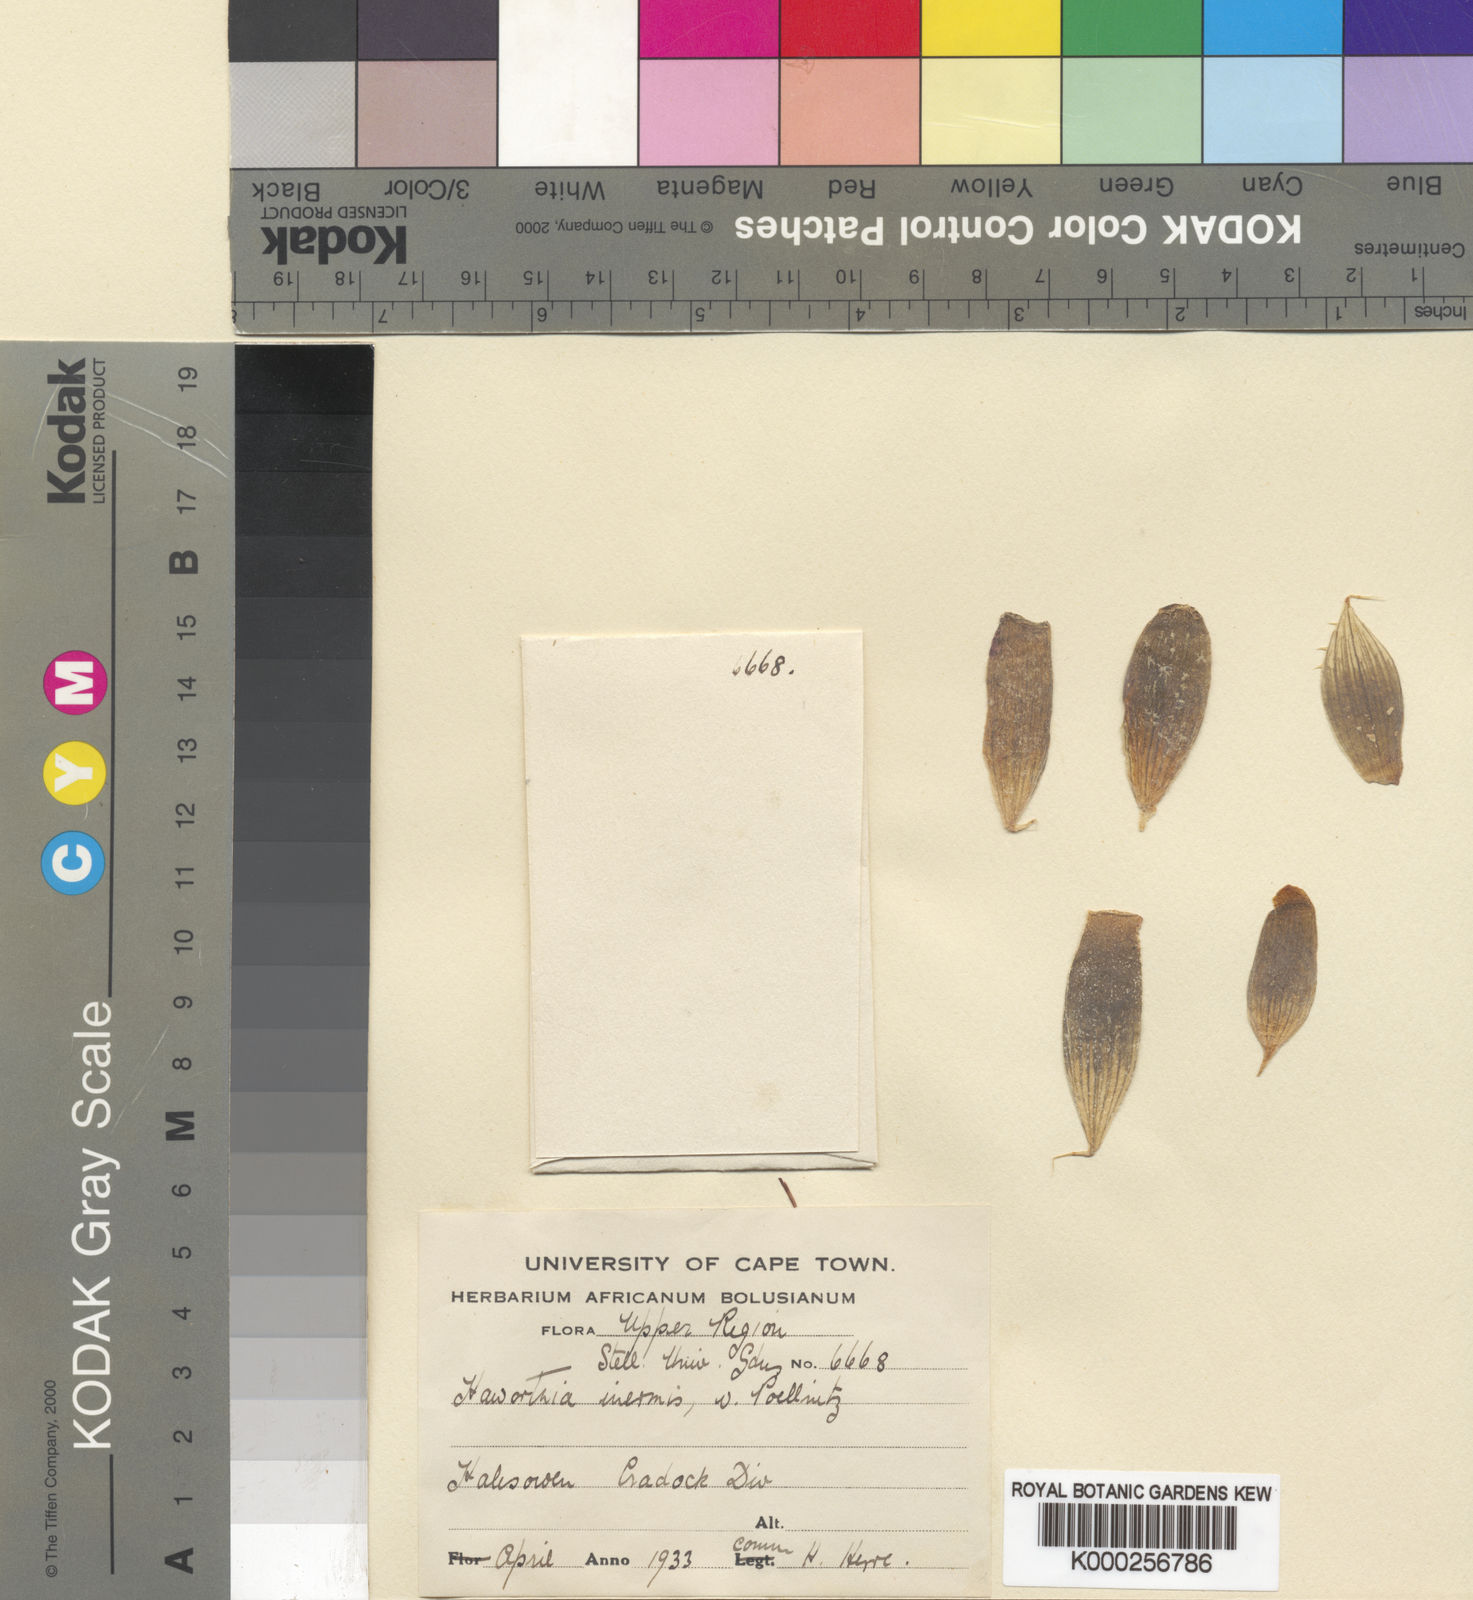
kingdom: Plantae
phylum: Tracheophyta
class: Liliopsida
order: Asparagales
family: Asphodelaceae
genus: Haworthia
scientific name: Haworthia bolusii
